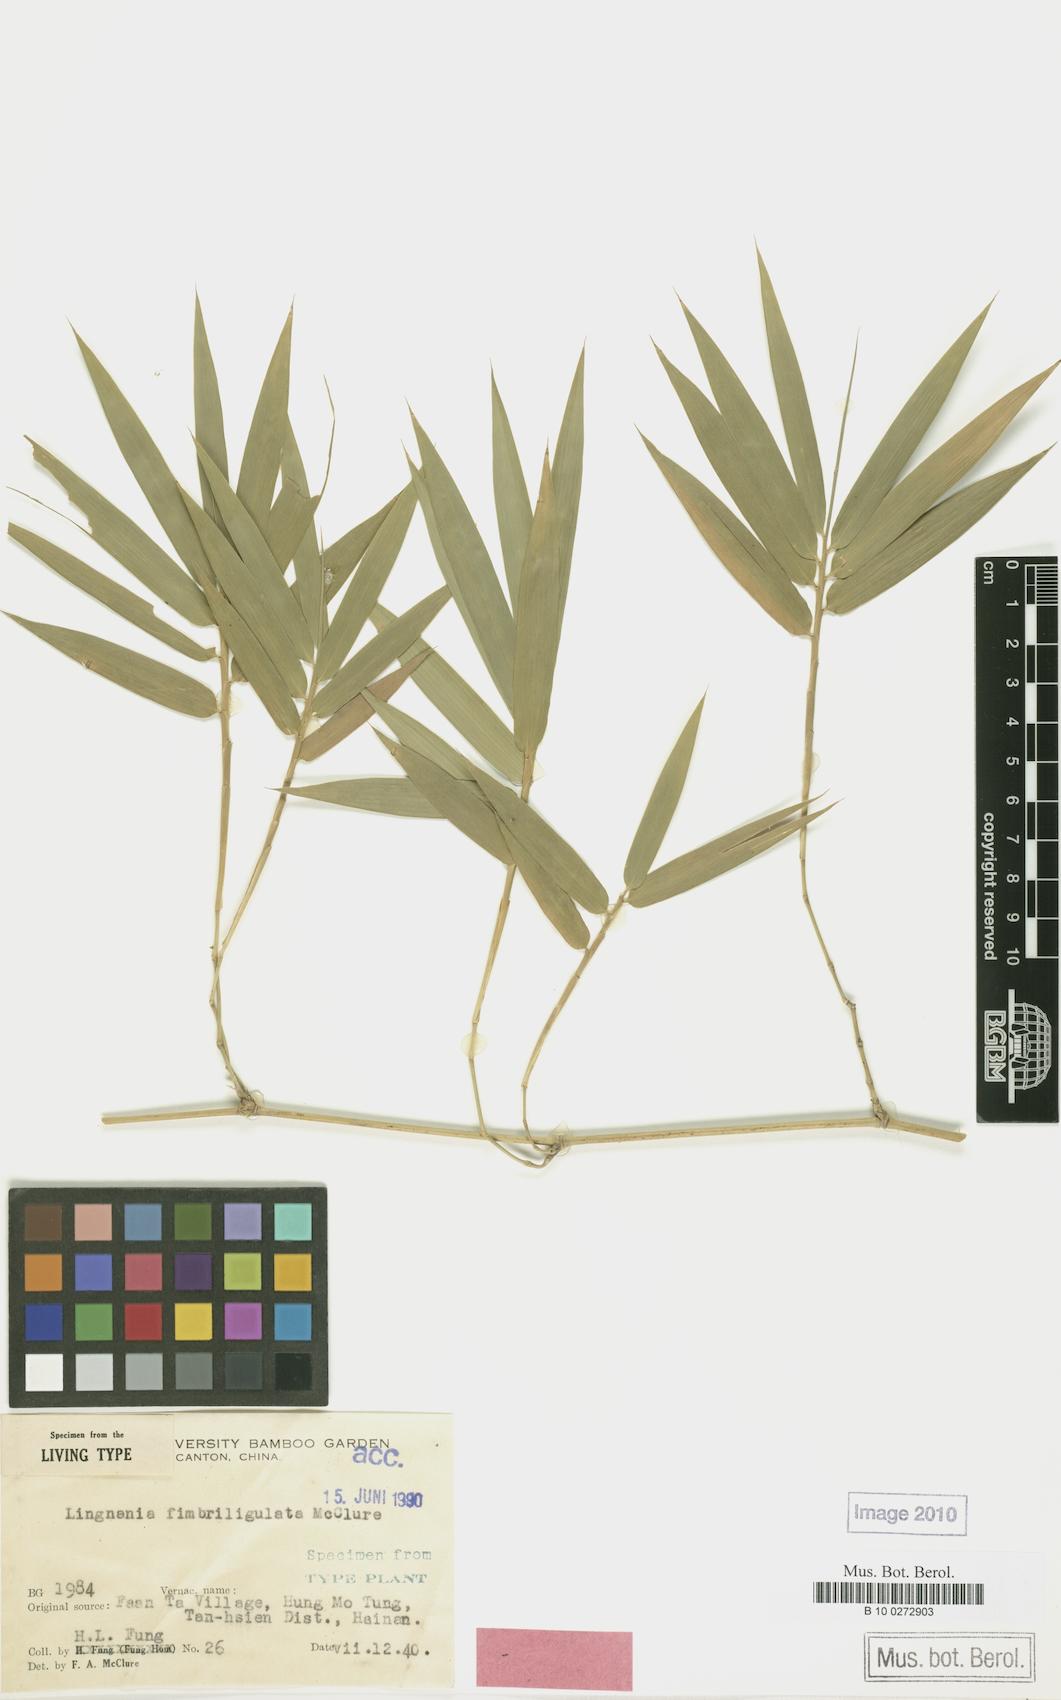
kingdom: Plantae
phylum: Tracheophyta
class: Liliopsida
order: Poales
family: Poaceae
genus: Bambusa
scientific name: Bambusa remotiflora
